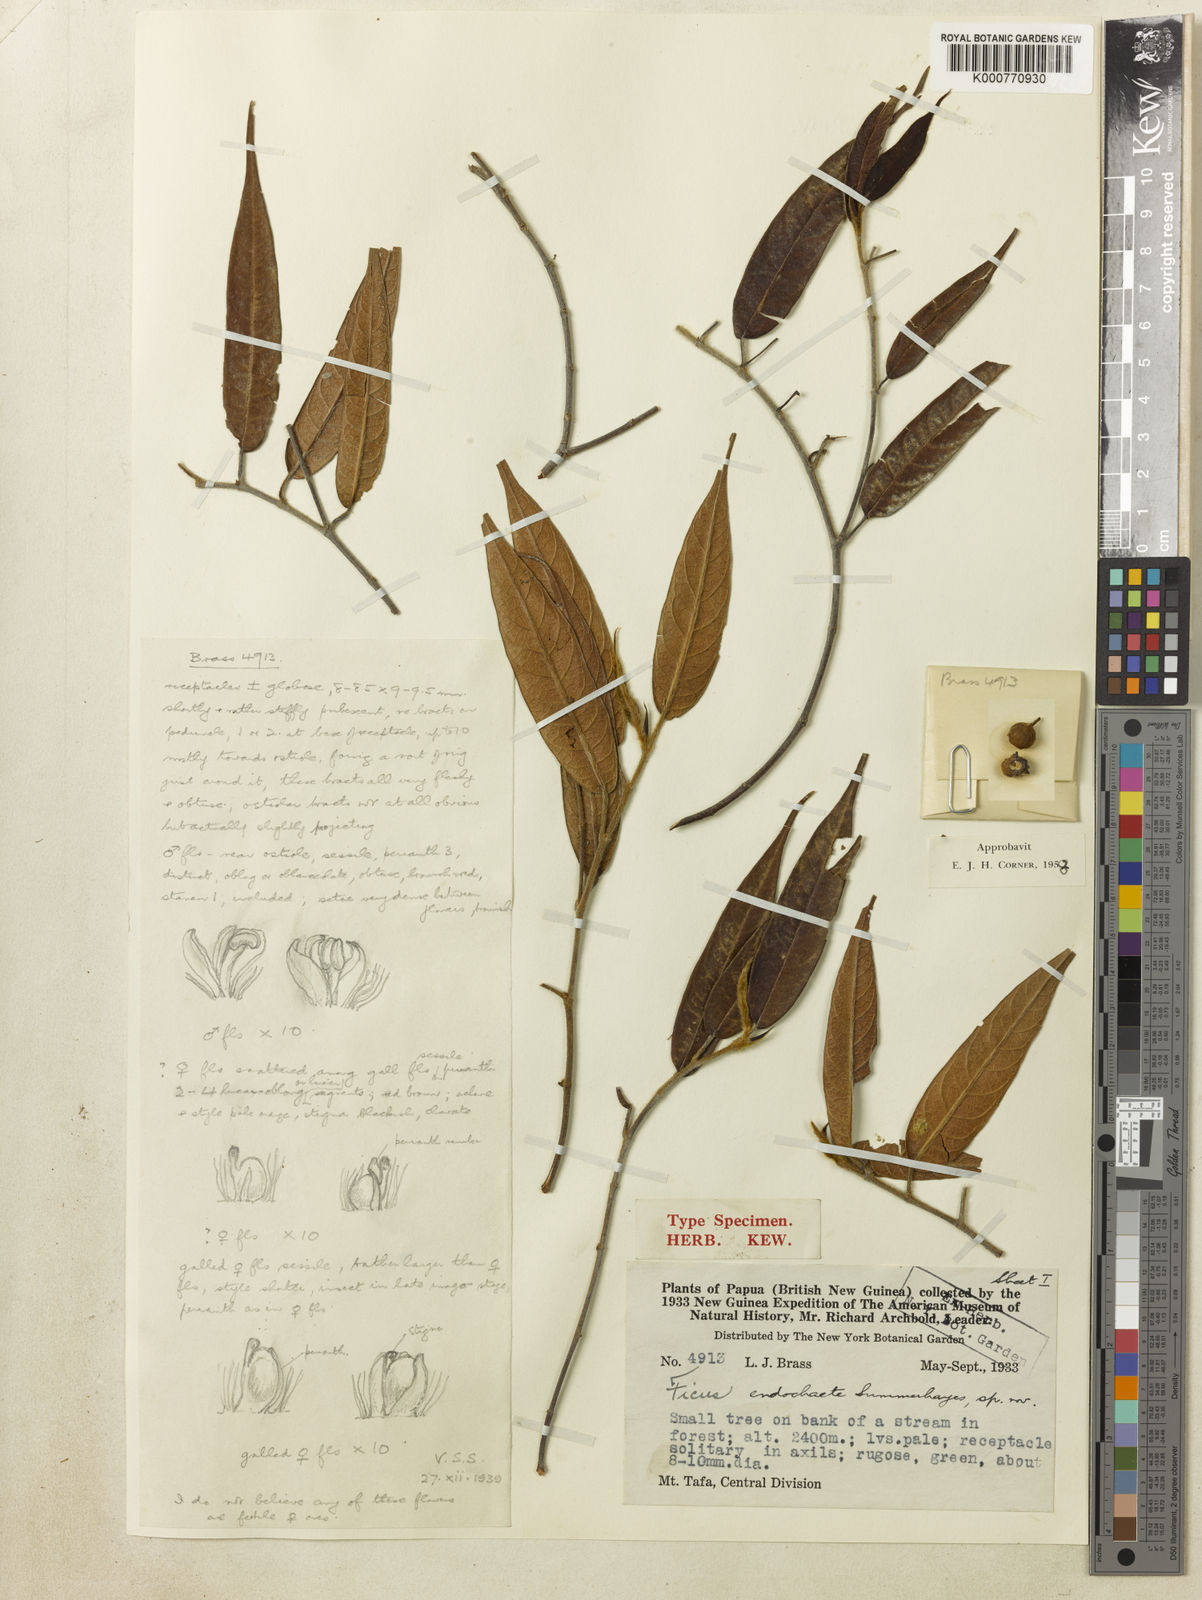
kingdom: Plantae
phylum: Tracheophyta
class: Magnoliopsida
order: Rosales
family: Moraceae
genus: Ficus
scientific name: Ficus endochaete
